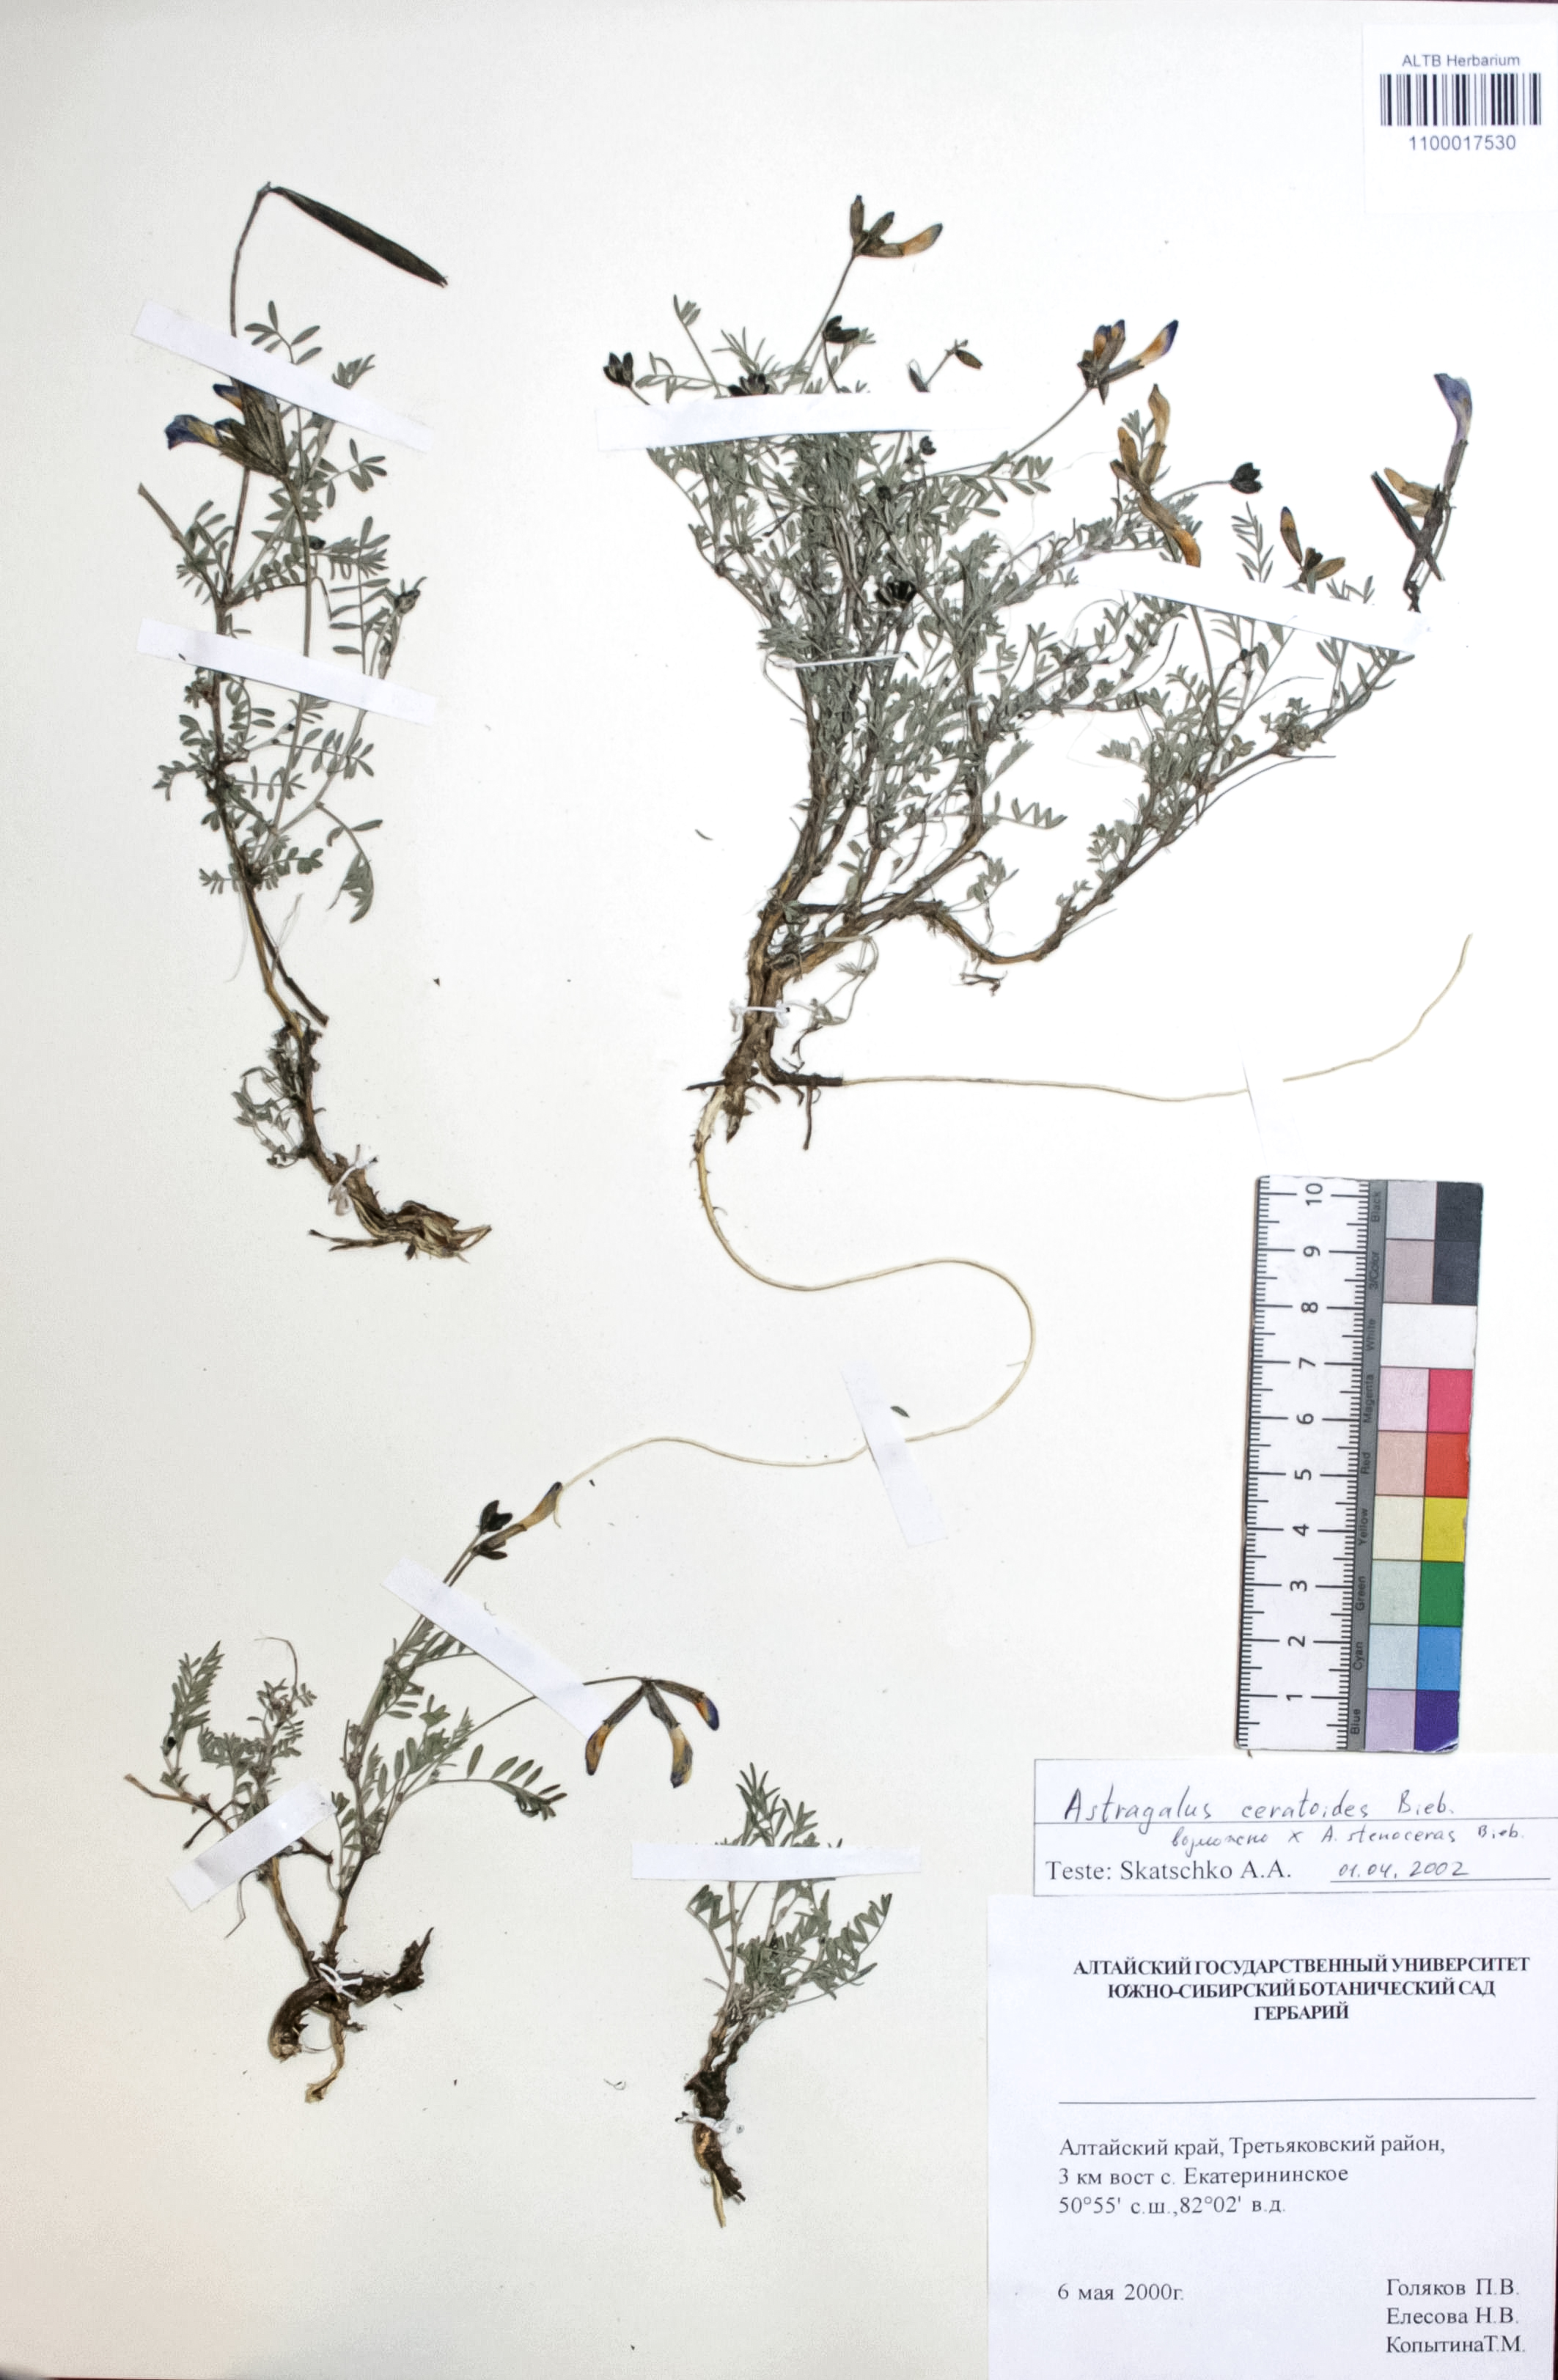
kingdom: Plantae
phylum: Tracheophyta
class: Magnoliopsida
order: Fabales
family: Fabaceae
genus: Astragalus
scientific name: Astragalus ceratoides
